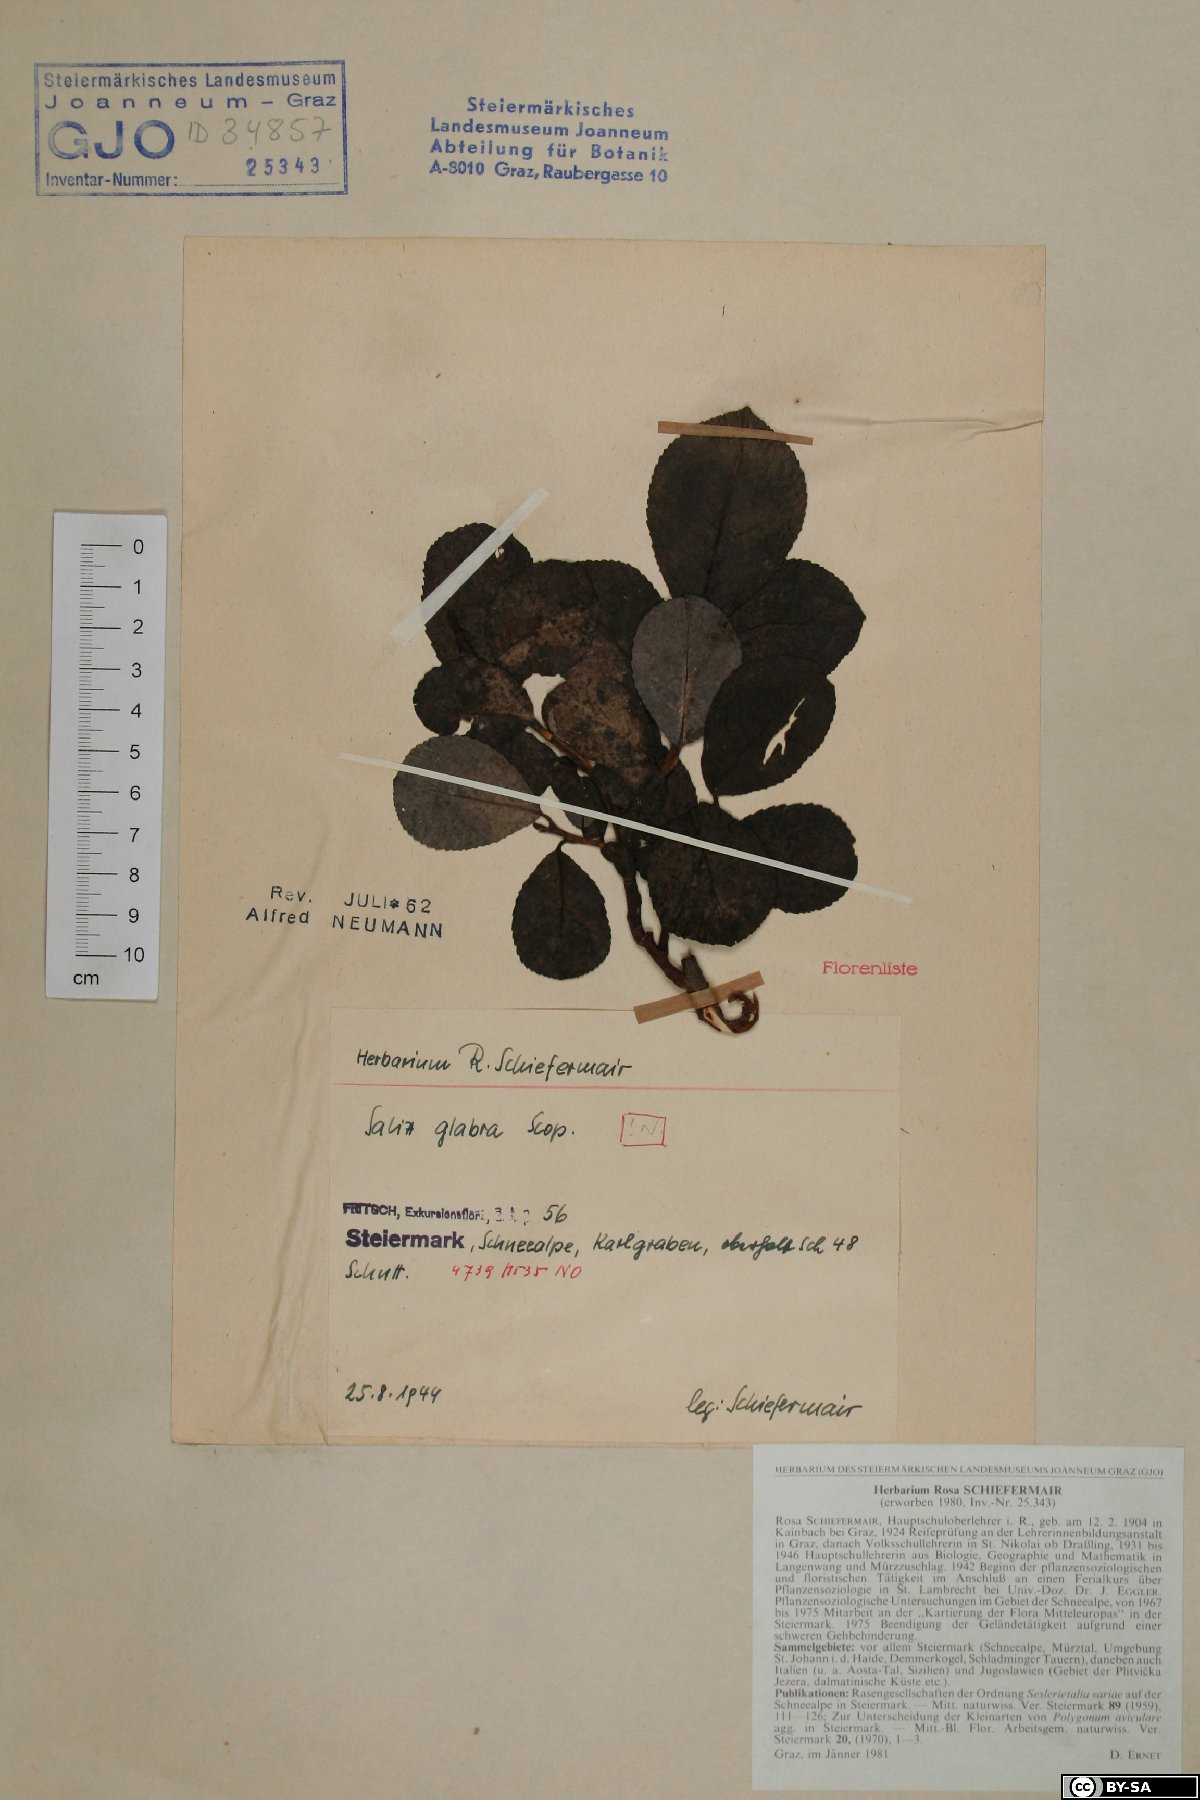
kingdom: Plantae
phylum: Tracheophyta
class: Magnoliopsida
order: Malpighiales
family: Salicaceae
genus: Salix
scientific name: Salix glabra
